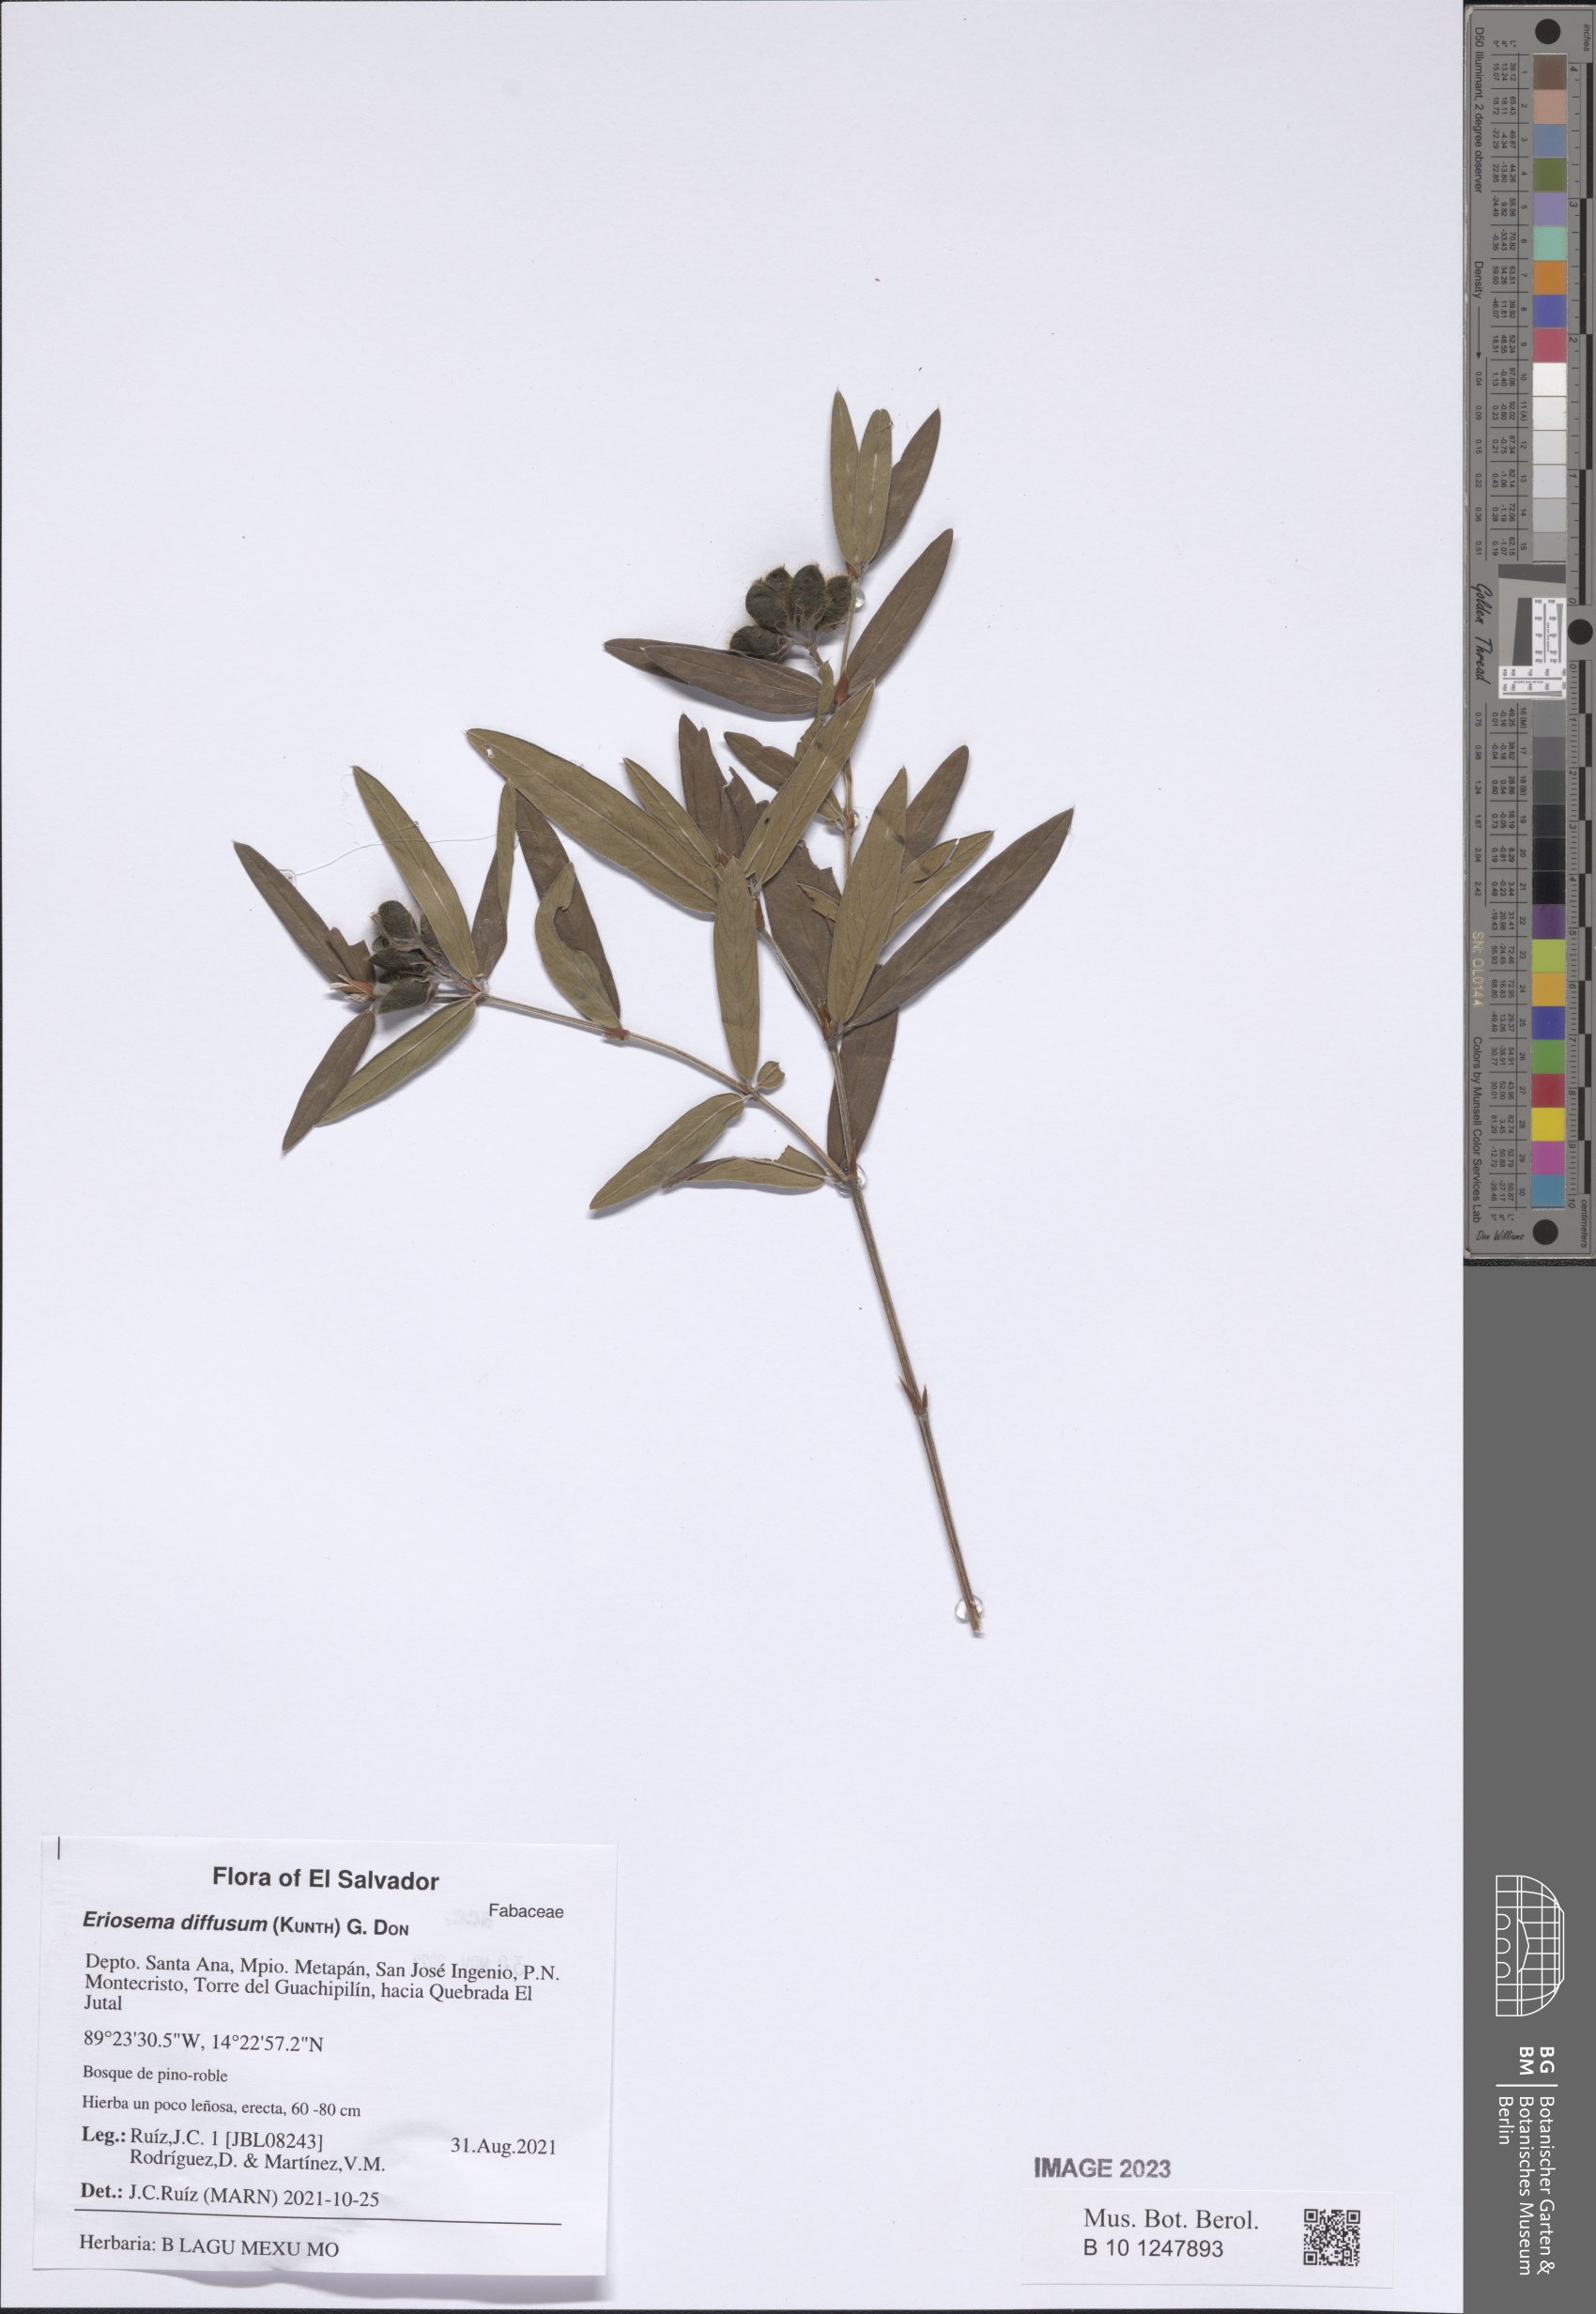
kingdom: Plantae
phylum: Tracheophyta
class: Magnoliopsida
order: Fabales
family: Fabaceae
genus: Eriosema
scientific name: Eriosema diffusum
